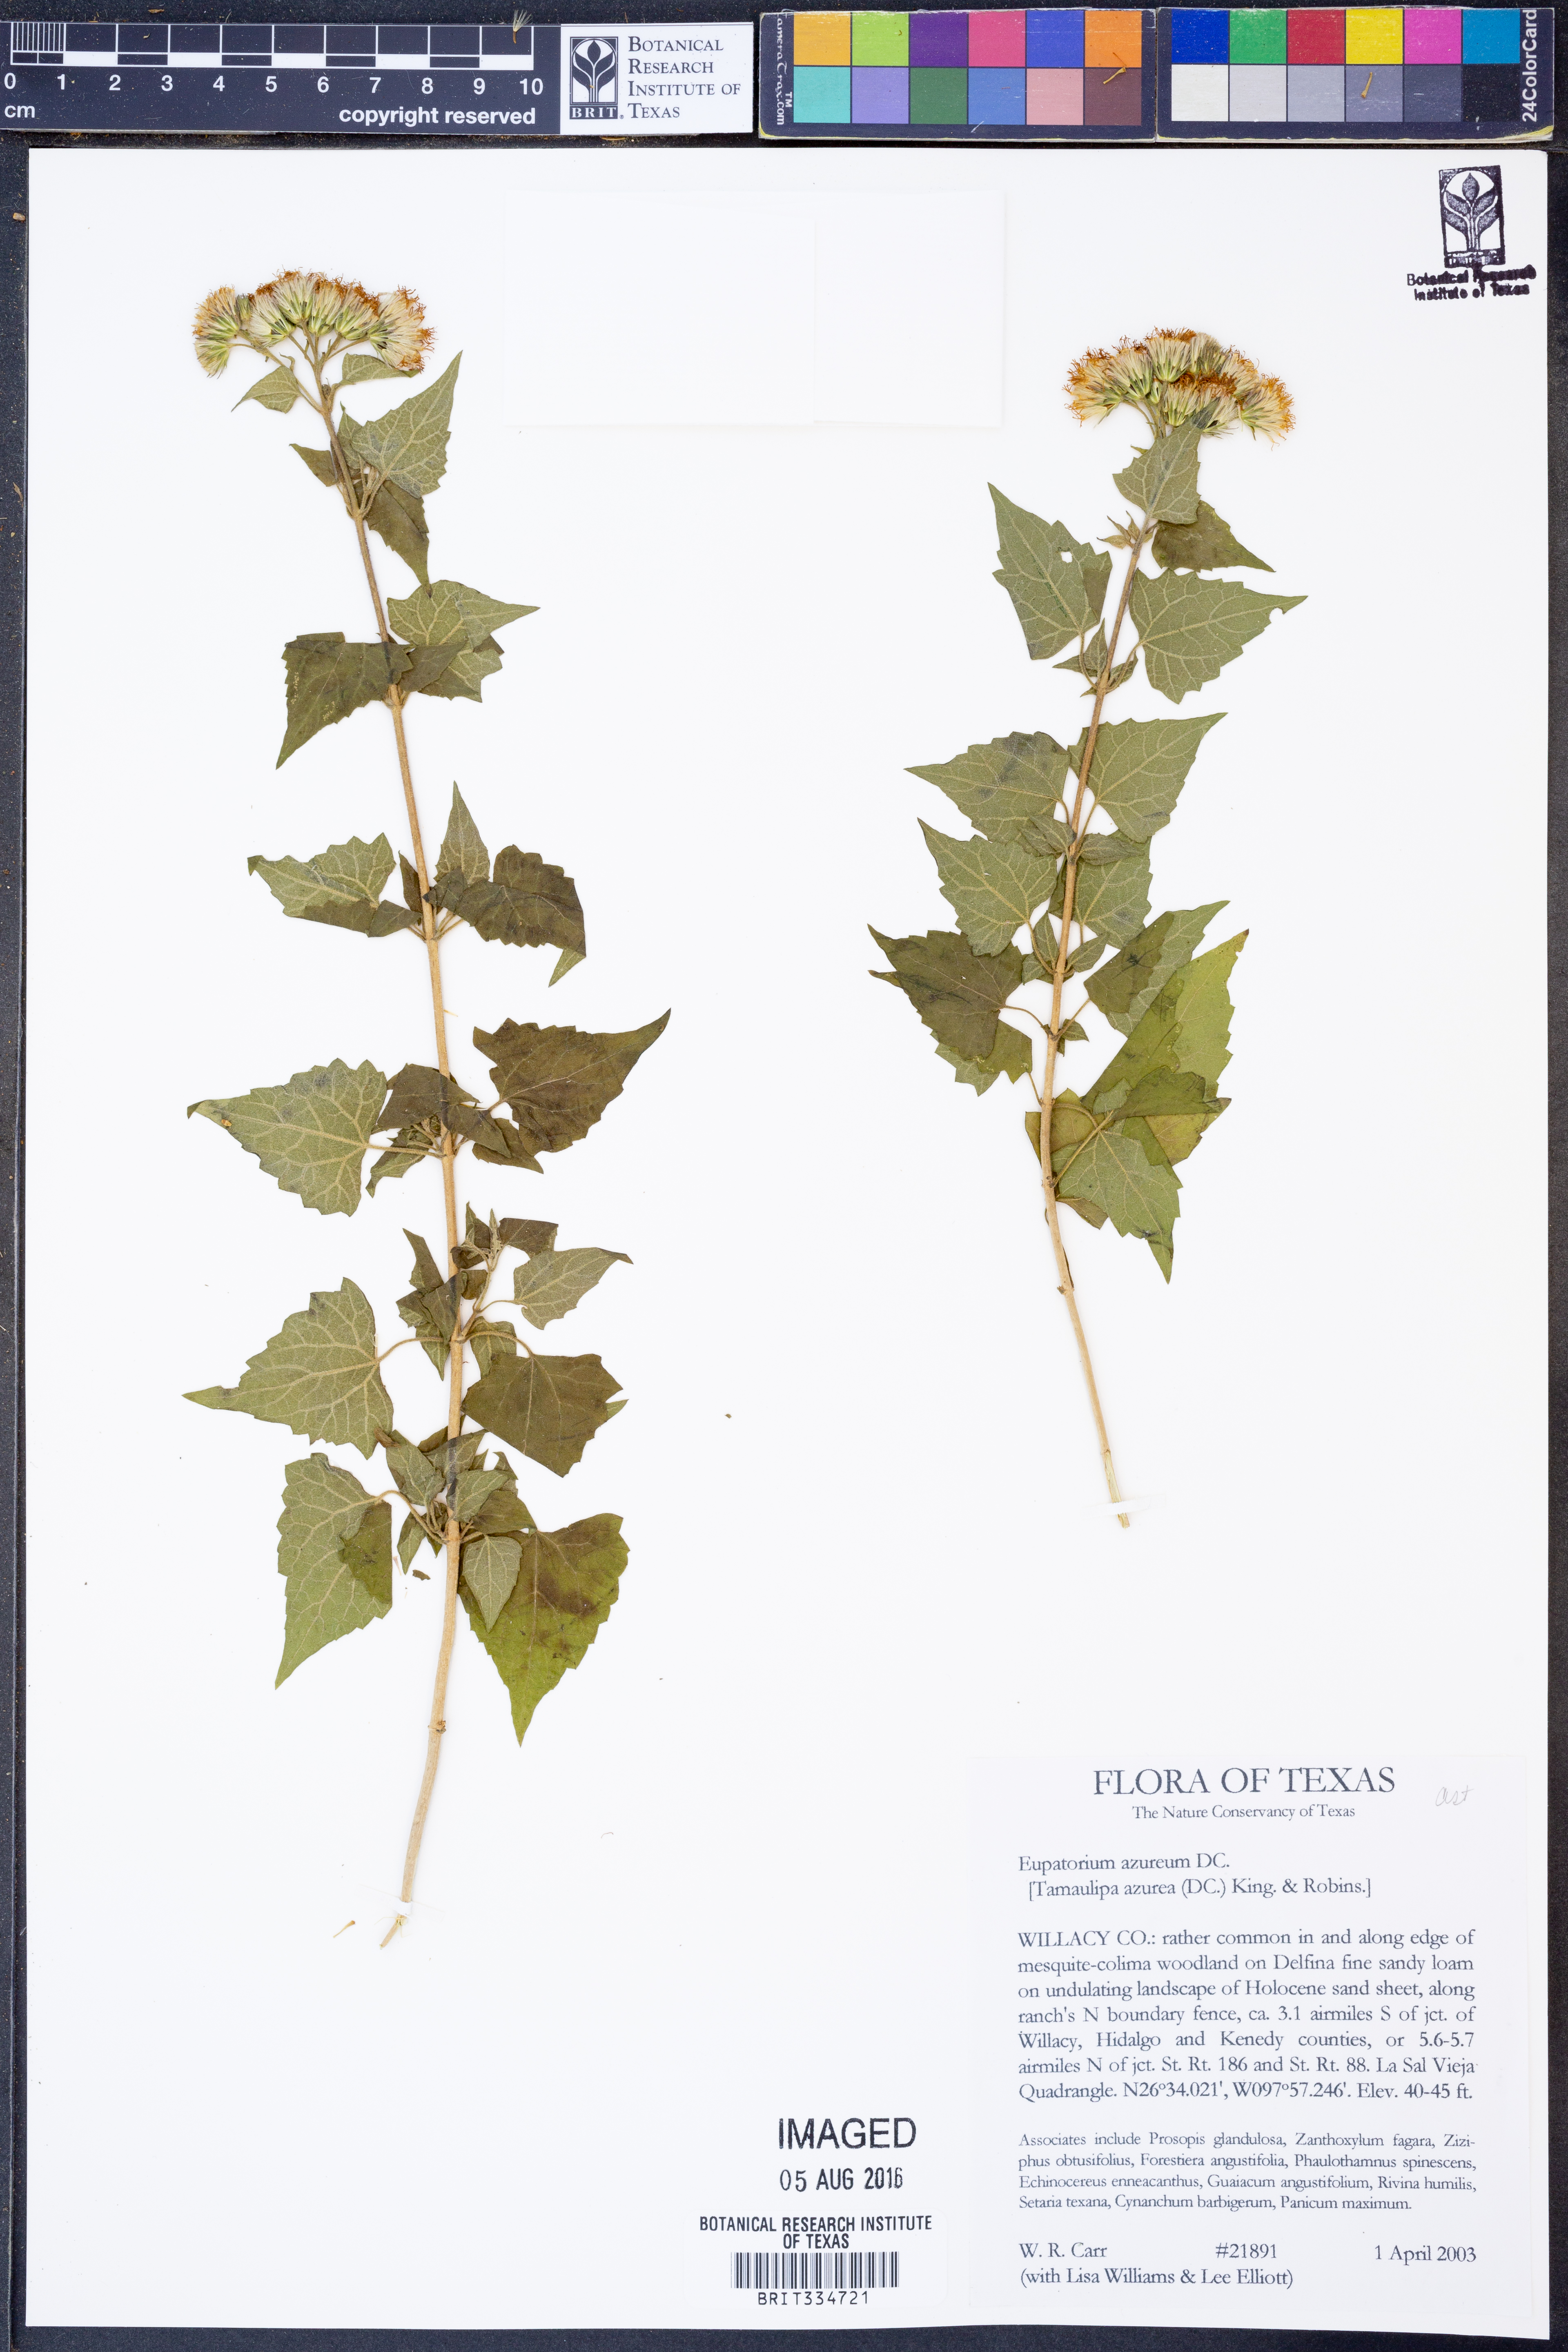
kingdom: Plantae
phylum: Tracheophyta
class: Magnoliopsida
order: Asterales
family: Asteraceae
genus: Tamaulipa
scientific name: Tamaulipa azurea
